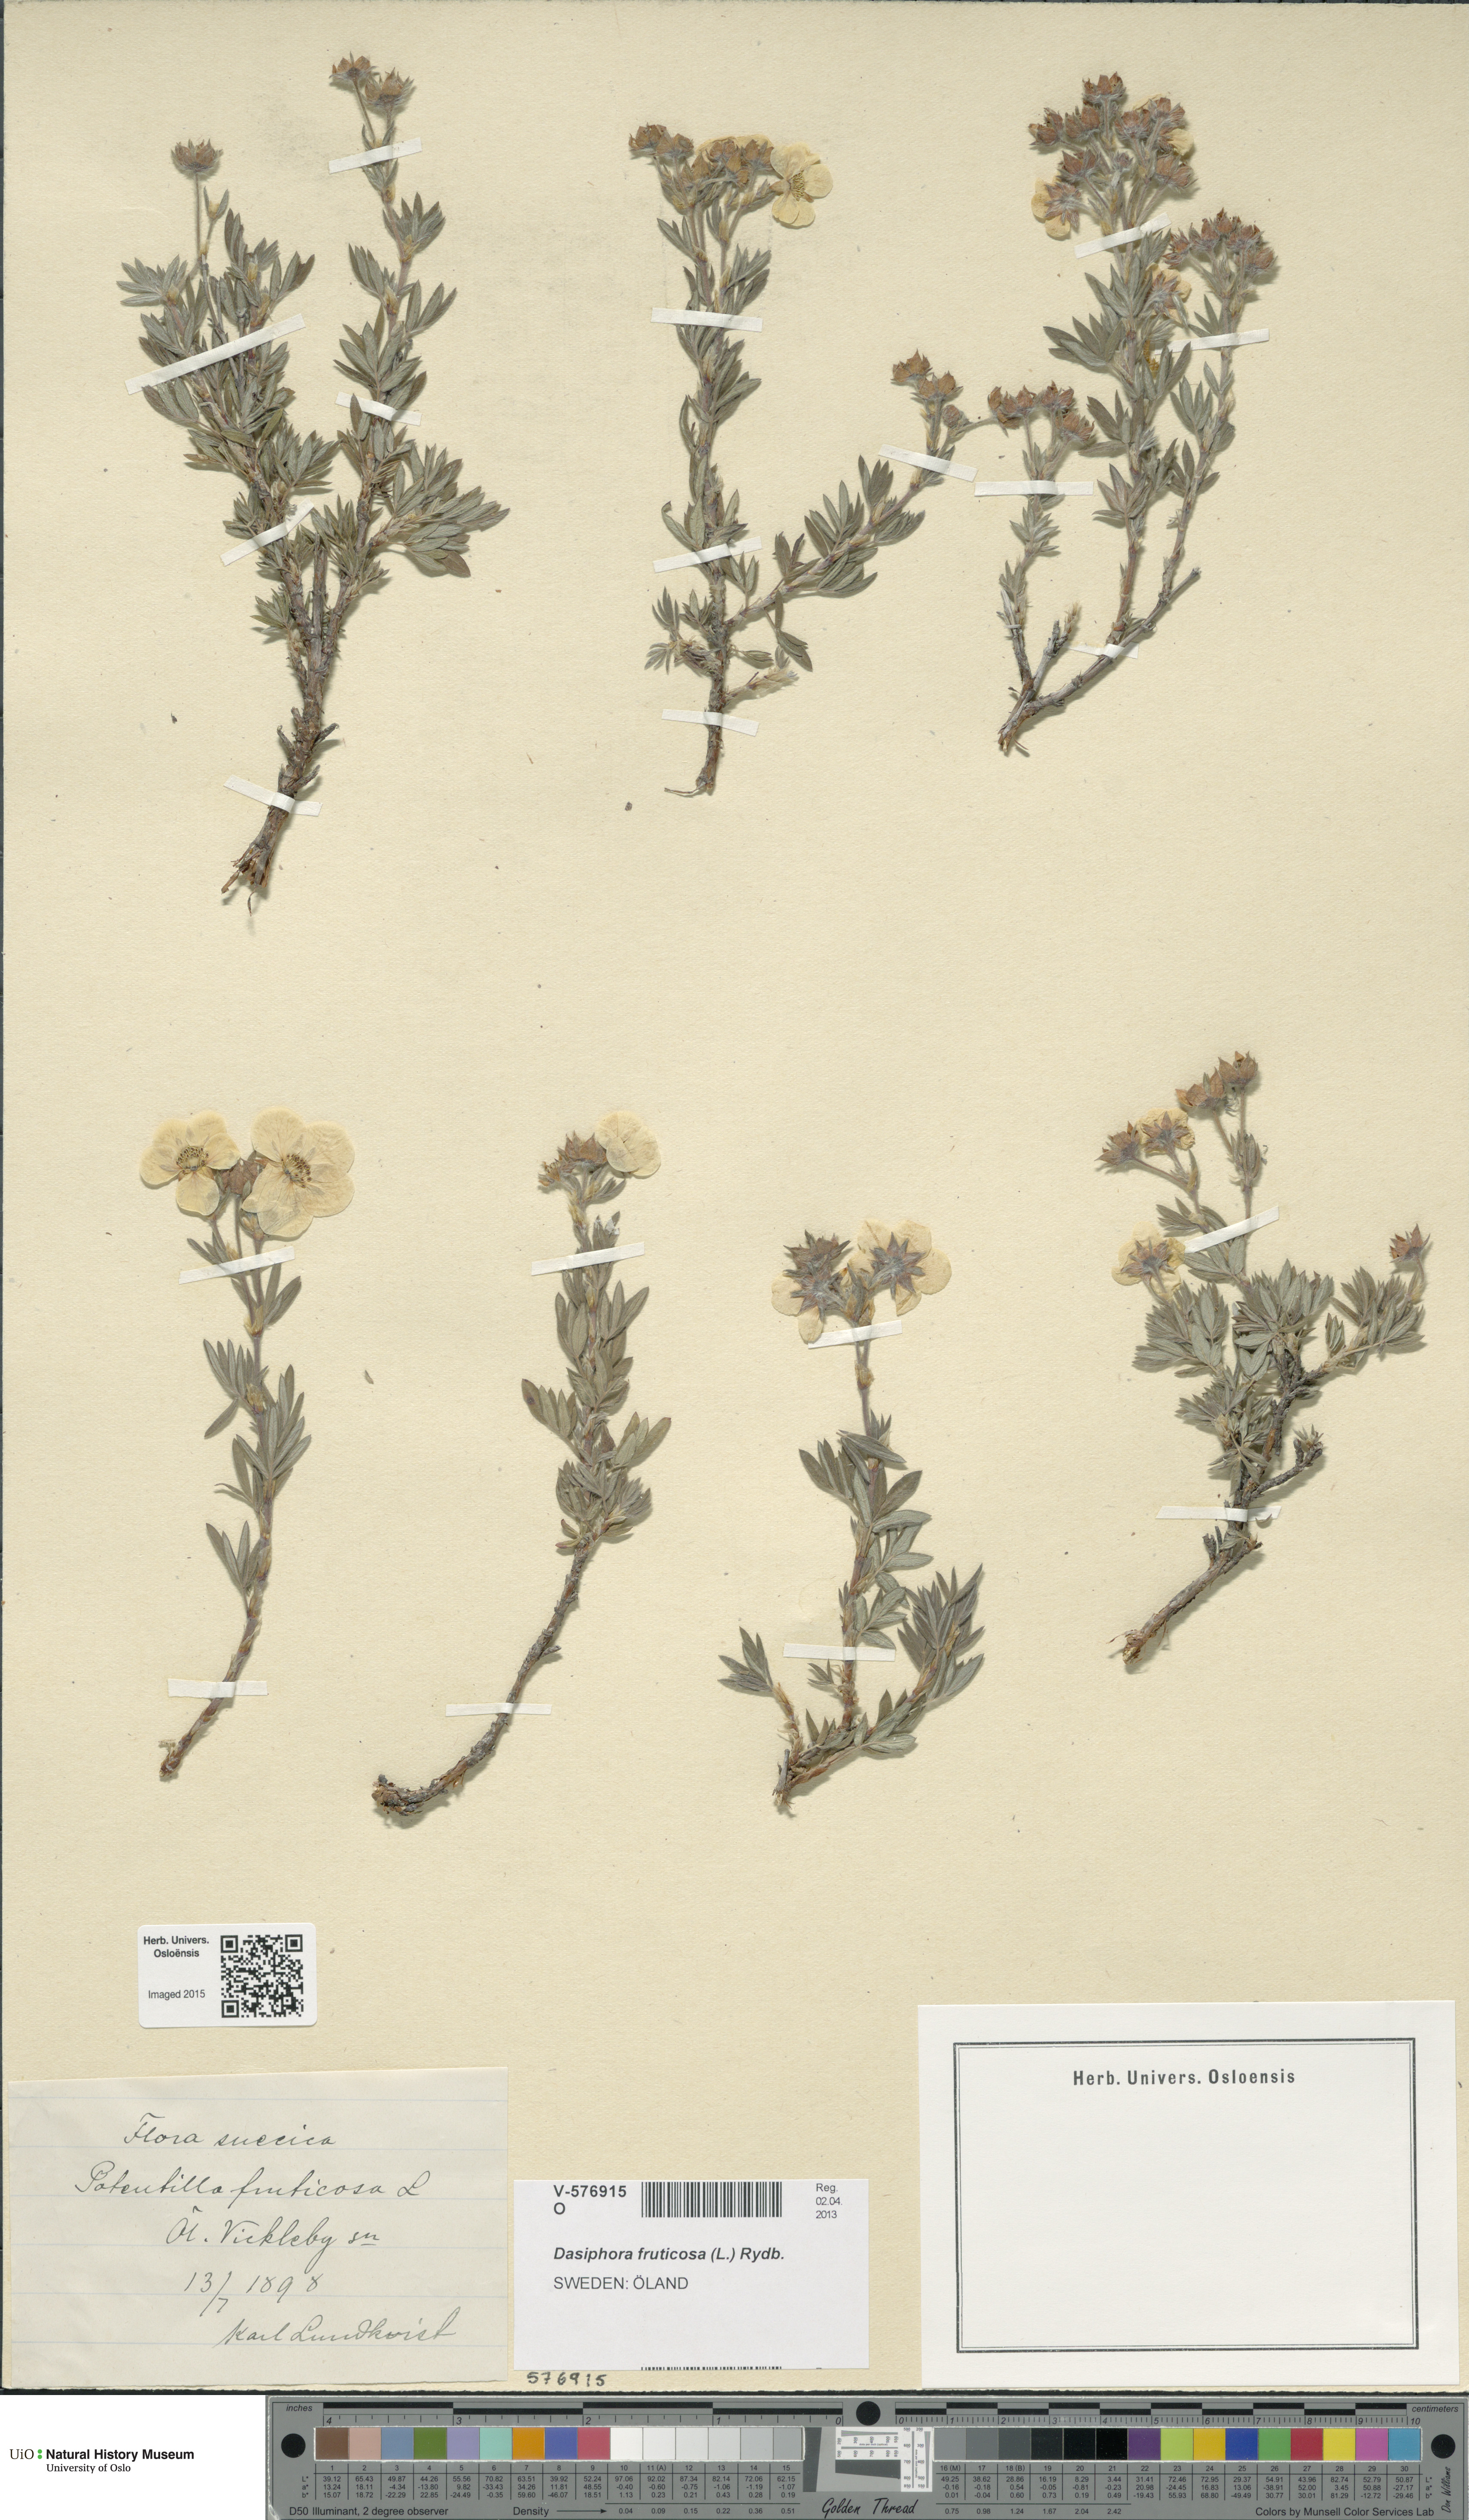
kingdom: Plantae
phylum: Tracheophyta
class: Magnoliopsida
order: Rosales
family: Rosaceae
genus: Dasiphora
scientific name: Dasiphora fruticosa
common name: Shrubby cinquefoil
